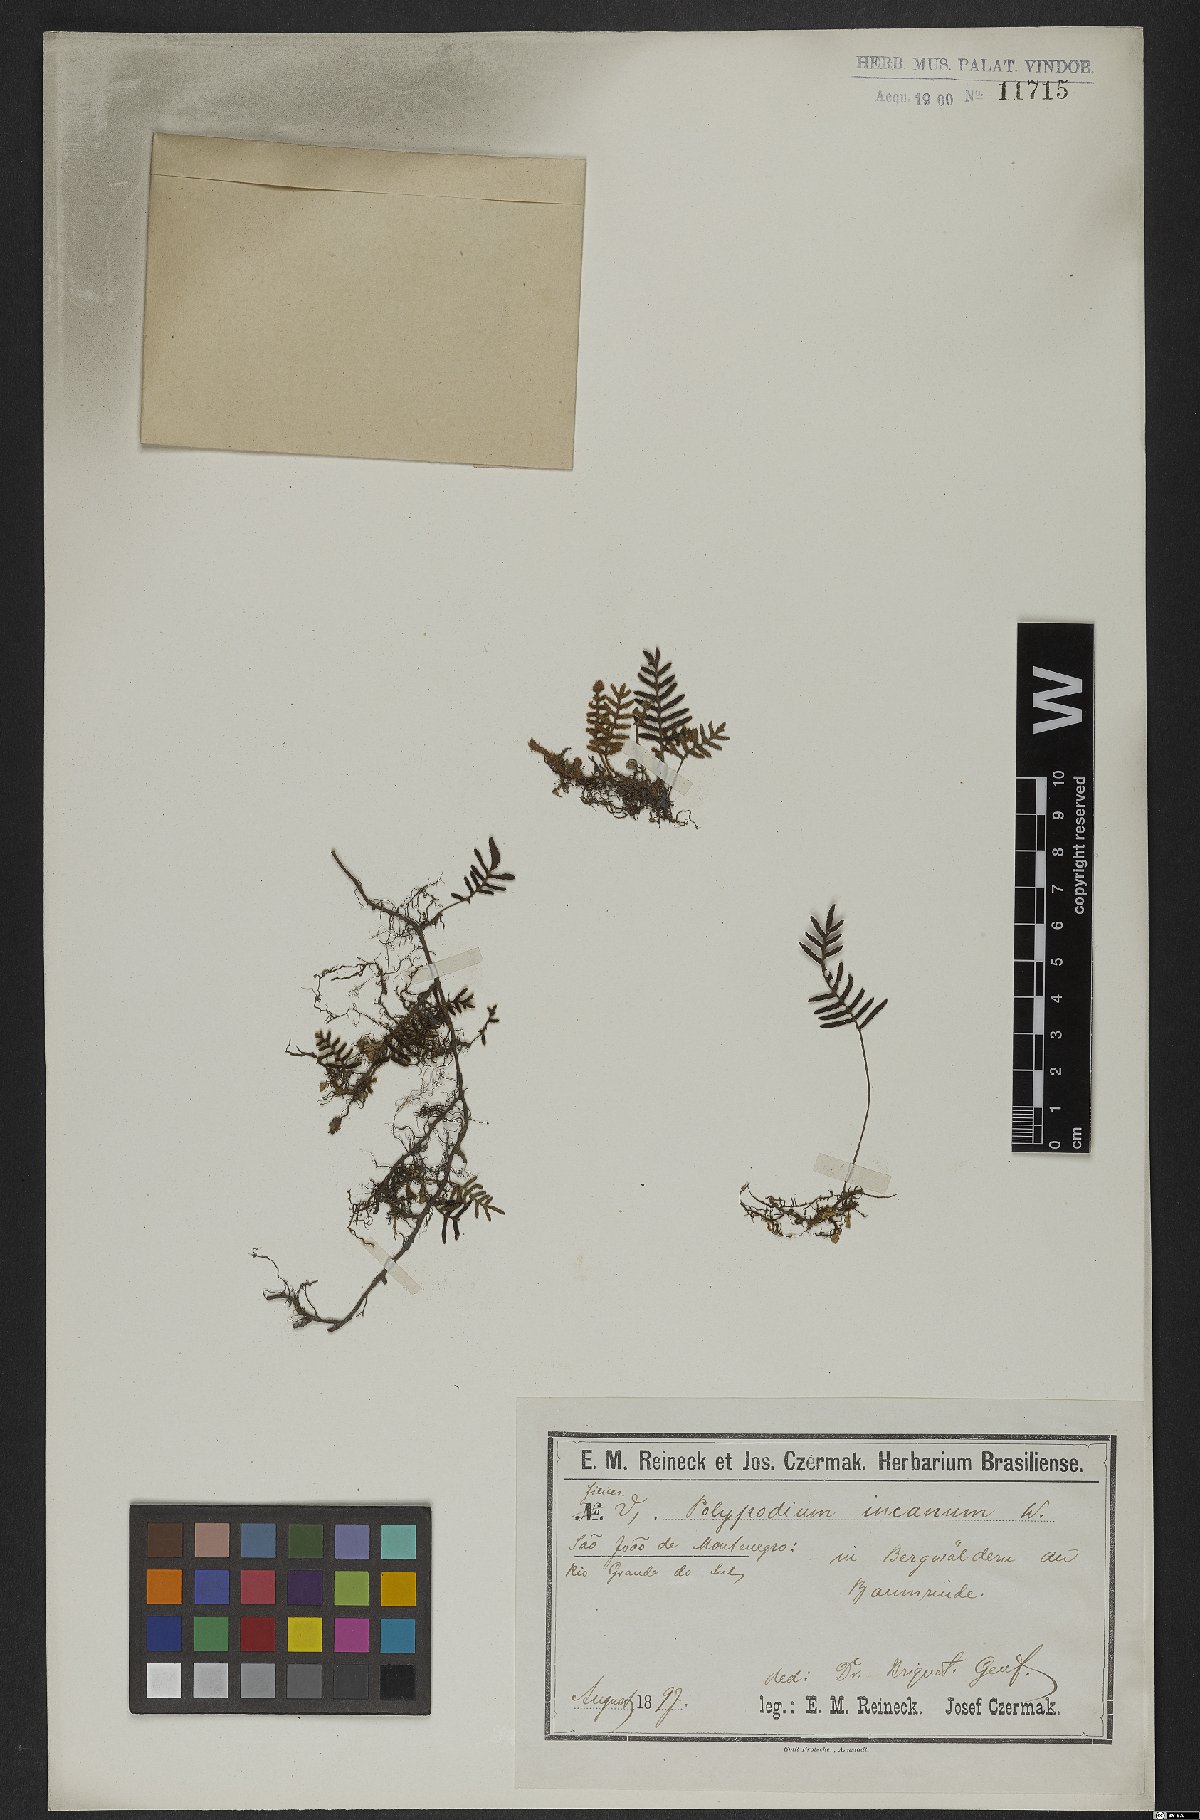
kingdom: Plantae
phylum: Tracheophyta
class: Polypodiopsida
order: Polypodiales
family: Polypodiaceae
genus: Pleopeltis
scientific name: Pleopeltis polypodioides
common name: Resurrection fern
